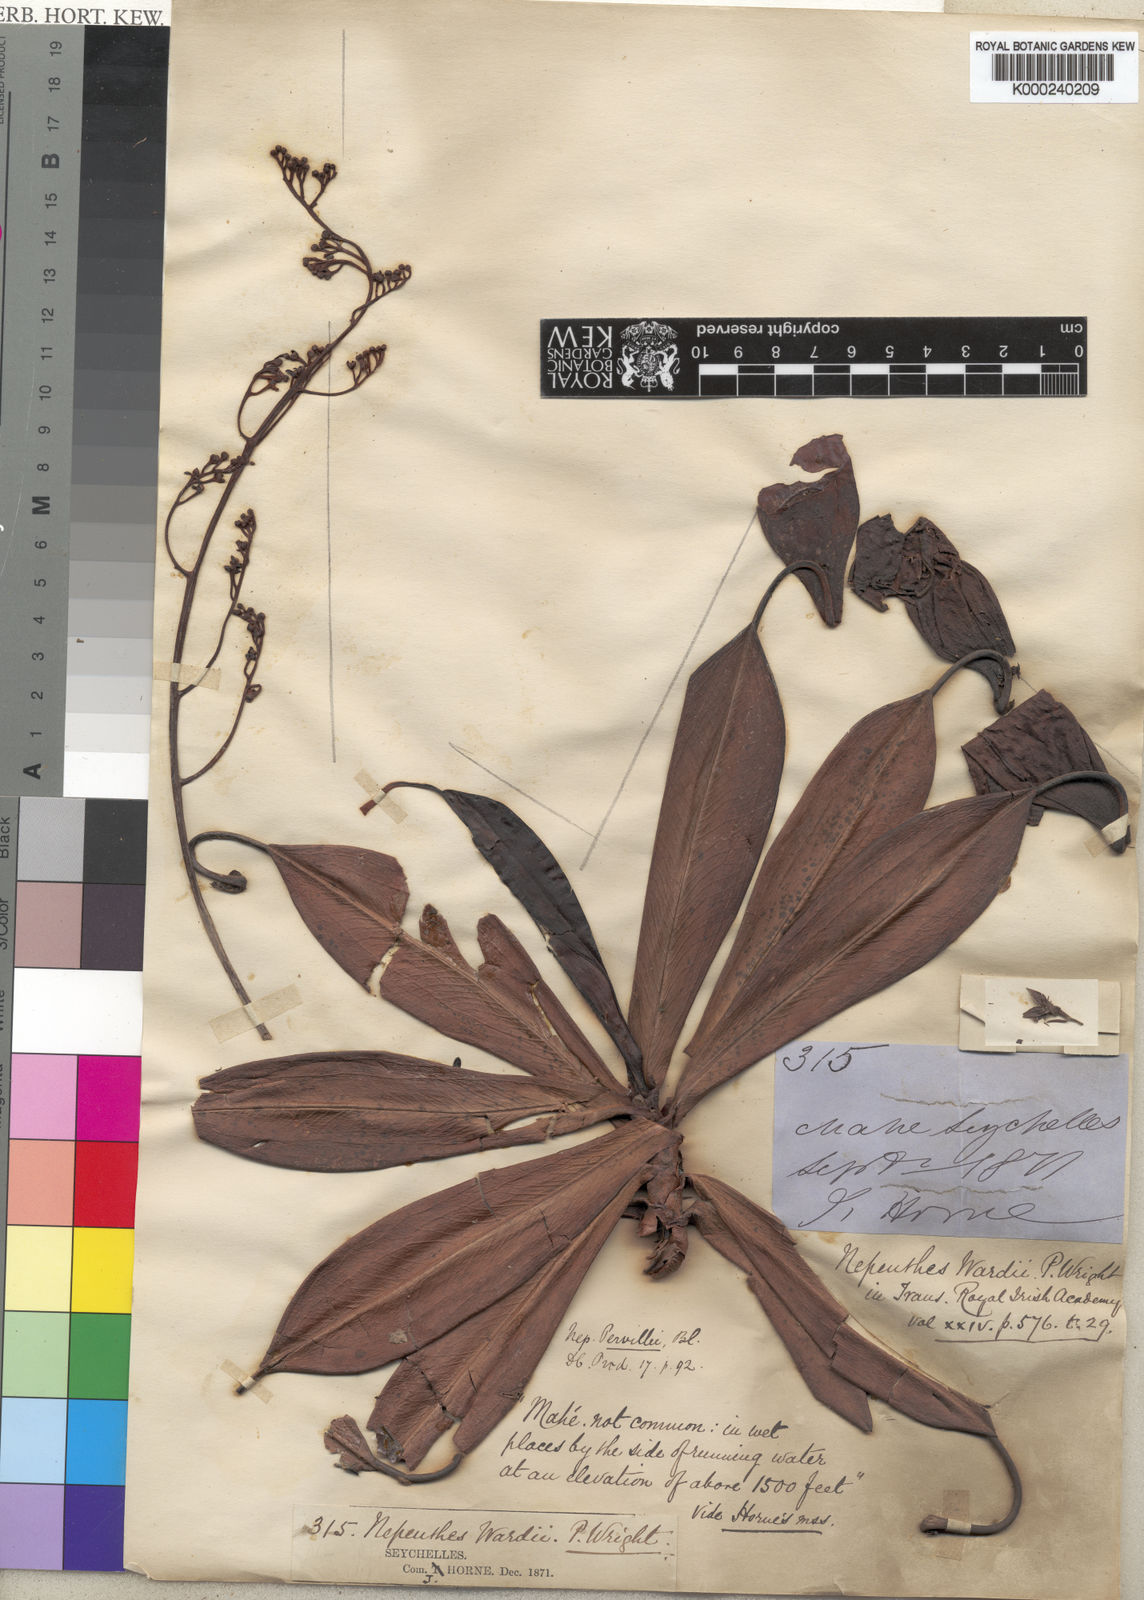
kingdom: Plantae
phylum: Tracheophyta
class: Magnoliopsida
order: Caryophyllales
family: Nepenthaceae
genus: Nepenthes
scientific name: Nepenthes pervillei
